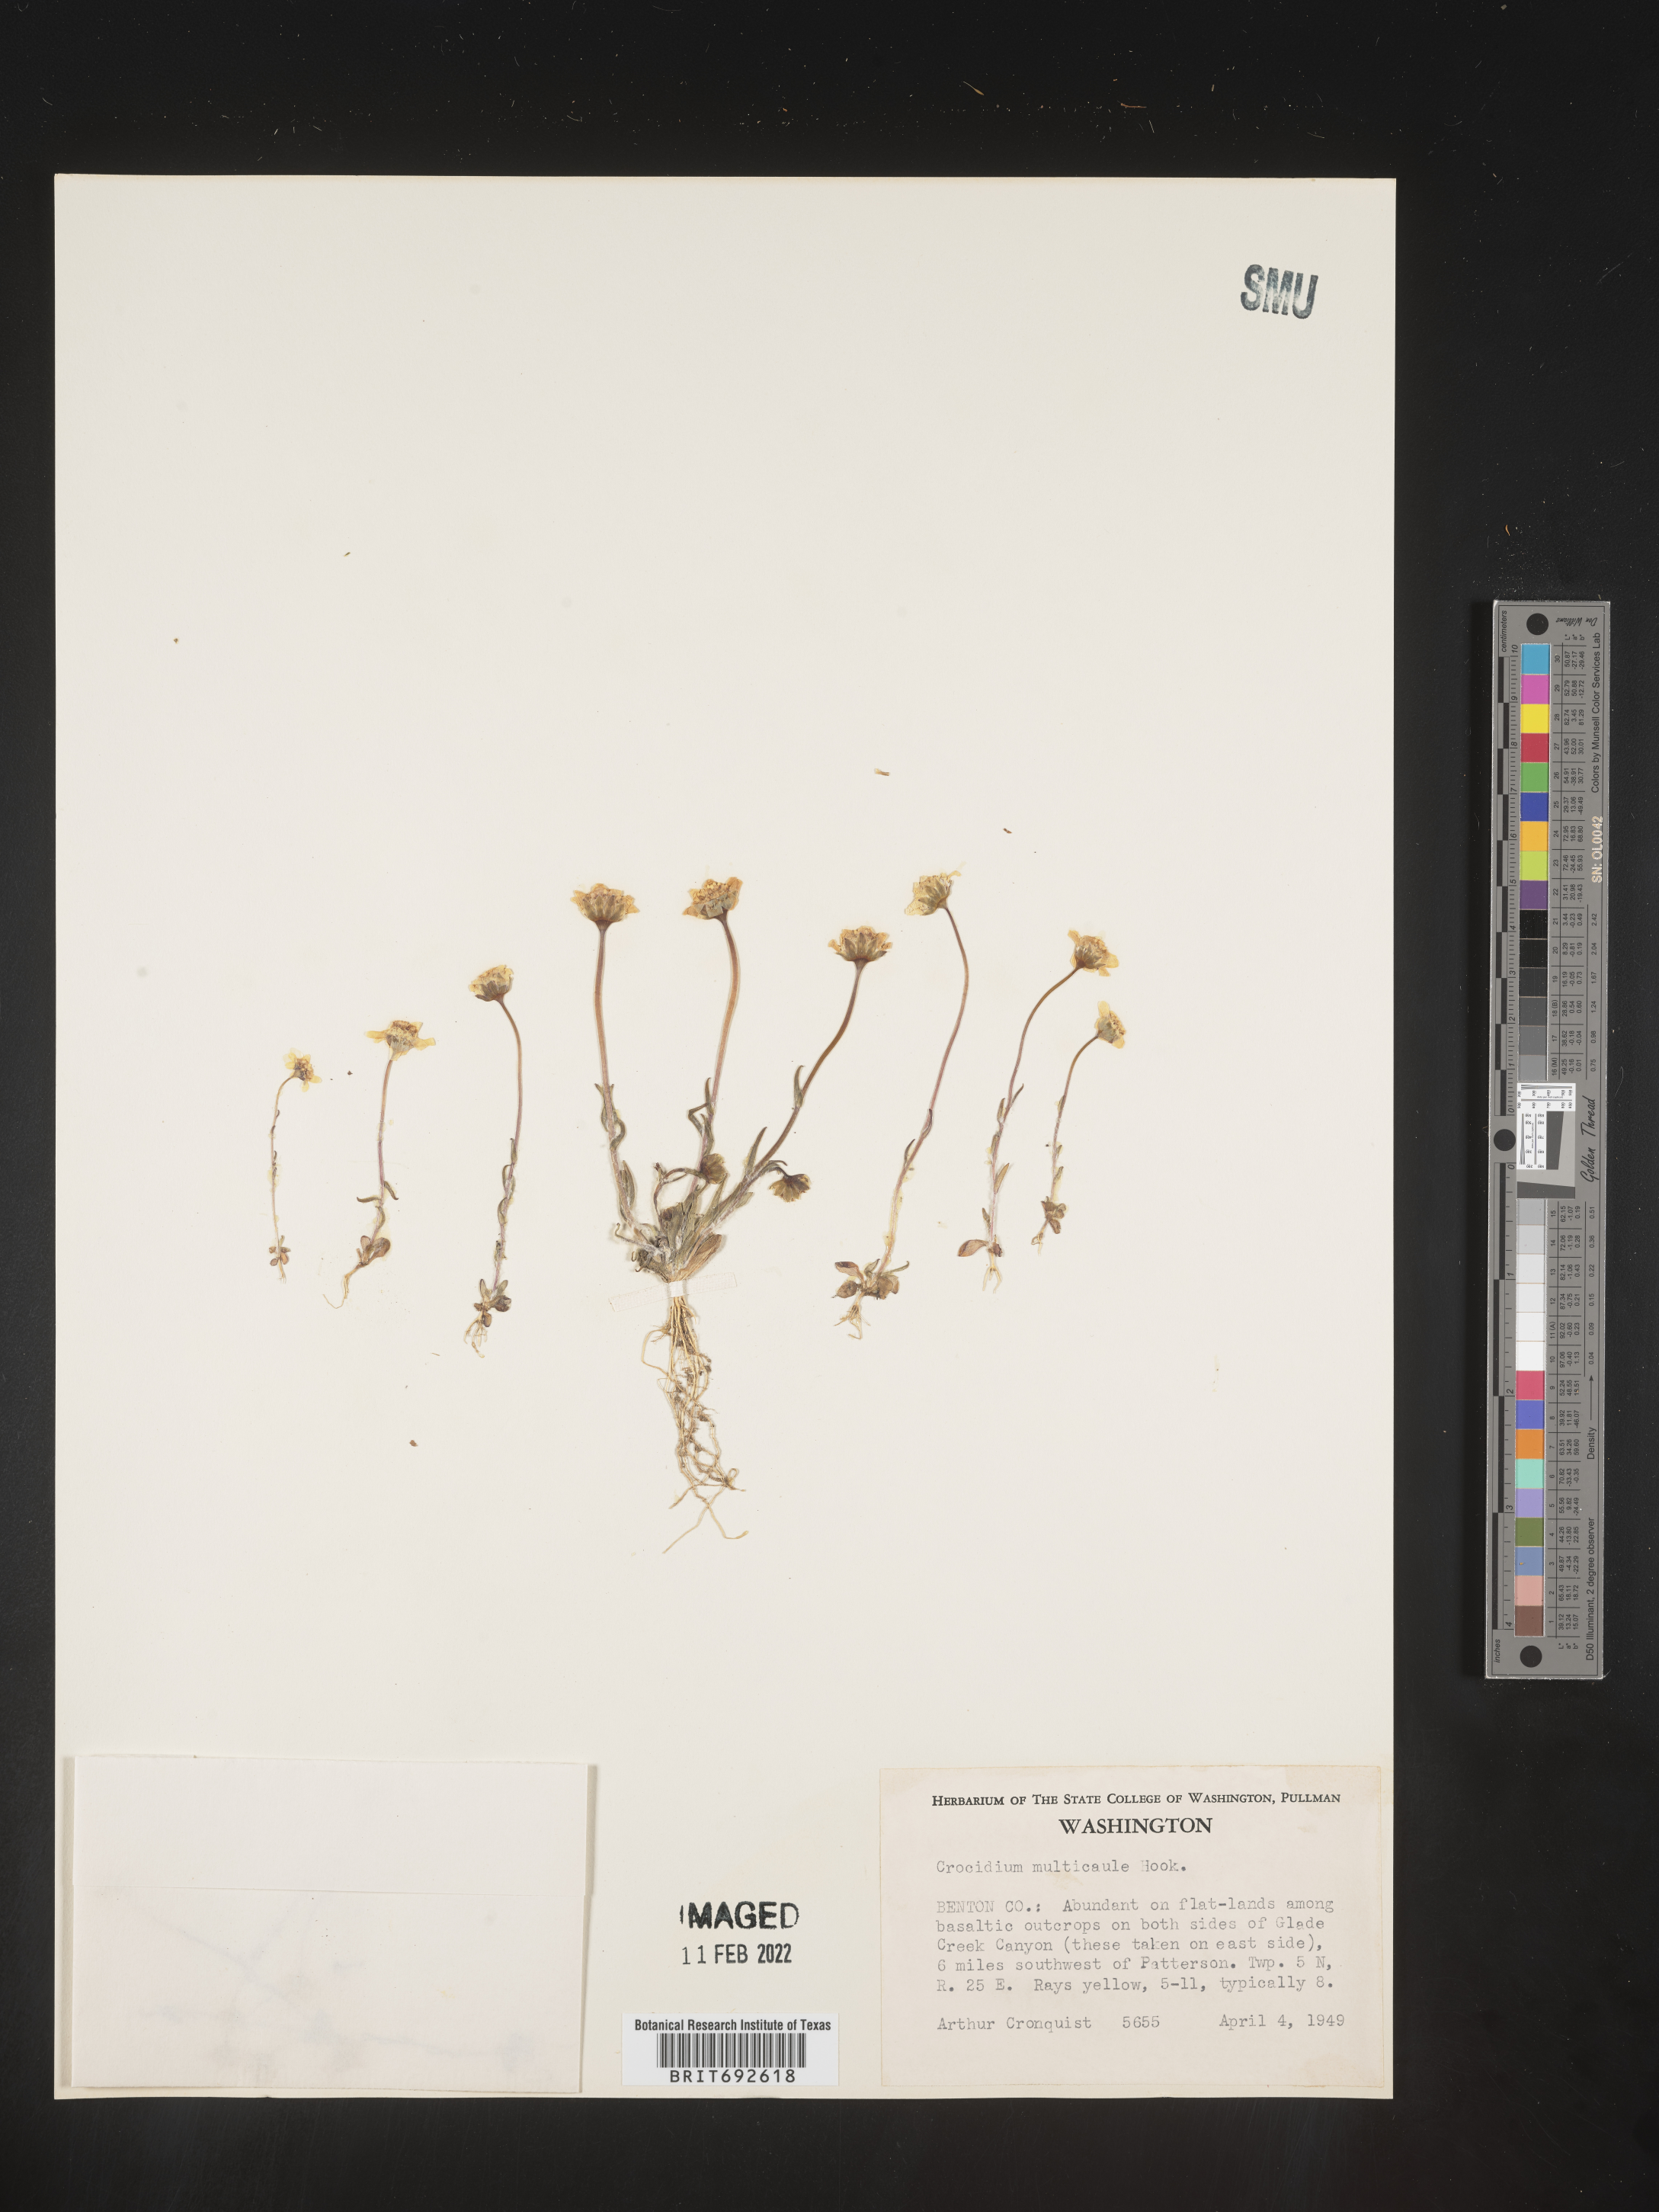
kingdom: Plantae
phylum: Tracheophyta
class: Magnoliopsida
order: Asterales
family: Asteraceae
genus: Crocidium
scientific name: Crocidium
